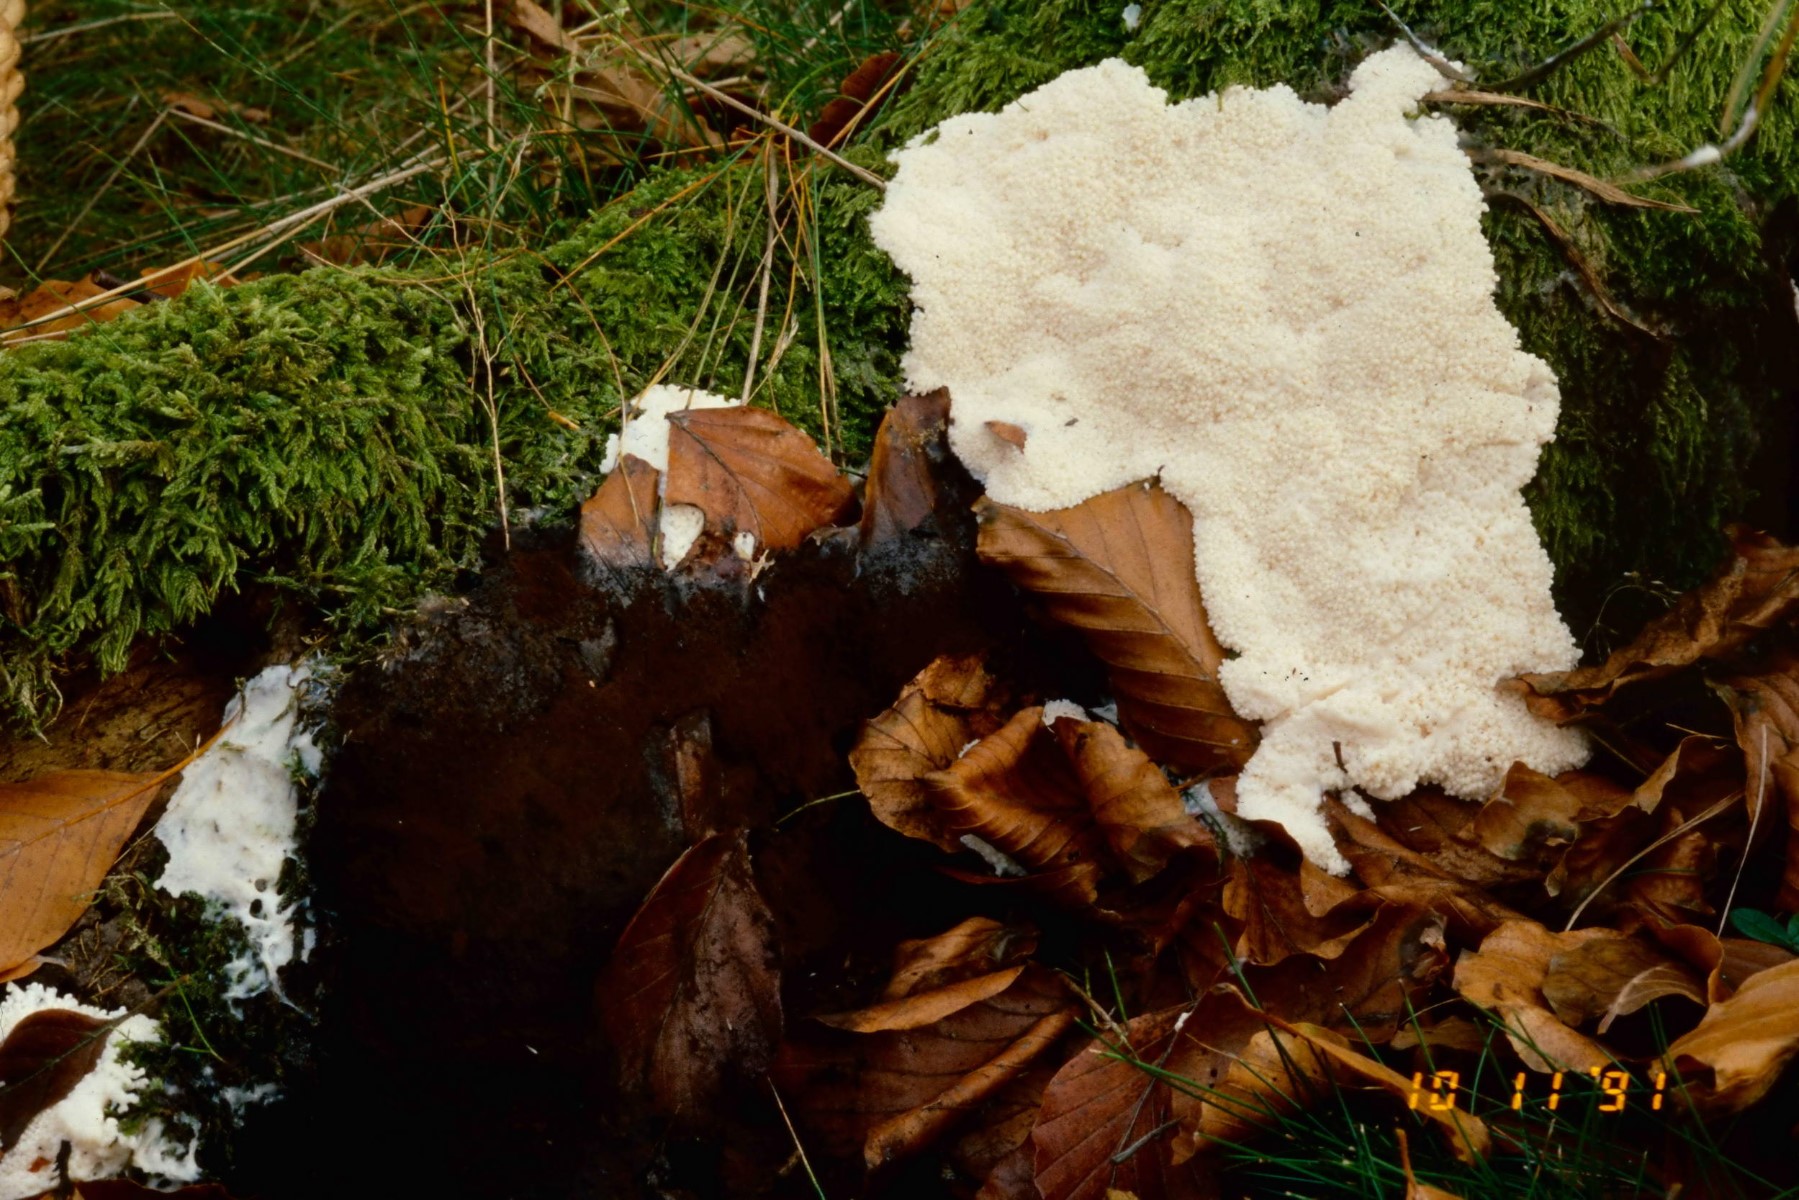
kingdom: Protozoa
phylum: Mycetozoa
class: Myxomycetes
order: Stemonitidales
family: Stemonitidaceae
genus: Brefeldia
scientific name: Brefeldia maxima
